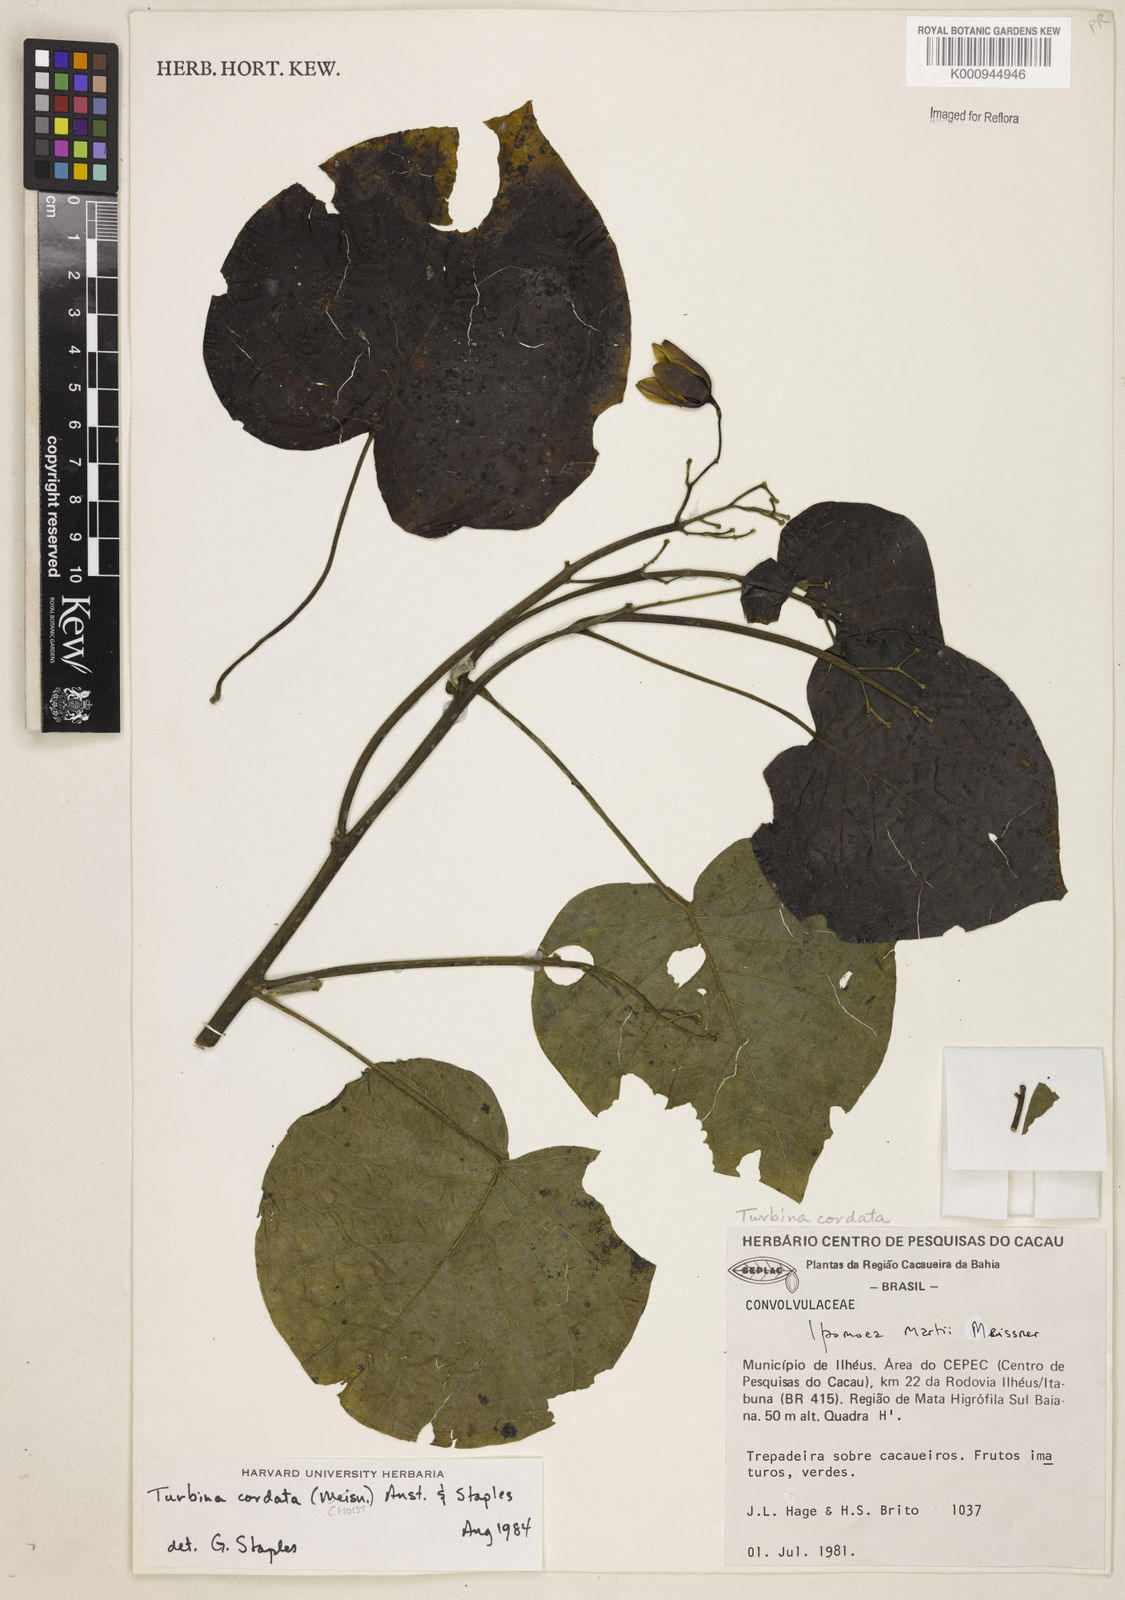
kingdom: Plantae
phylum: Tracheophyta
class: Magnoliopsida
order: Solanales
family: Convolvulaceae
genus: Ipomoea
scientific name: Ipomoea abutiloides
